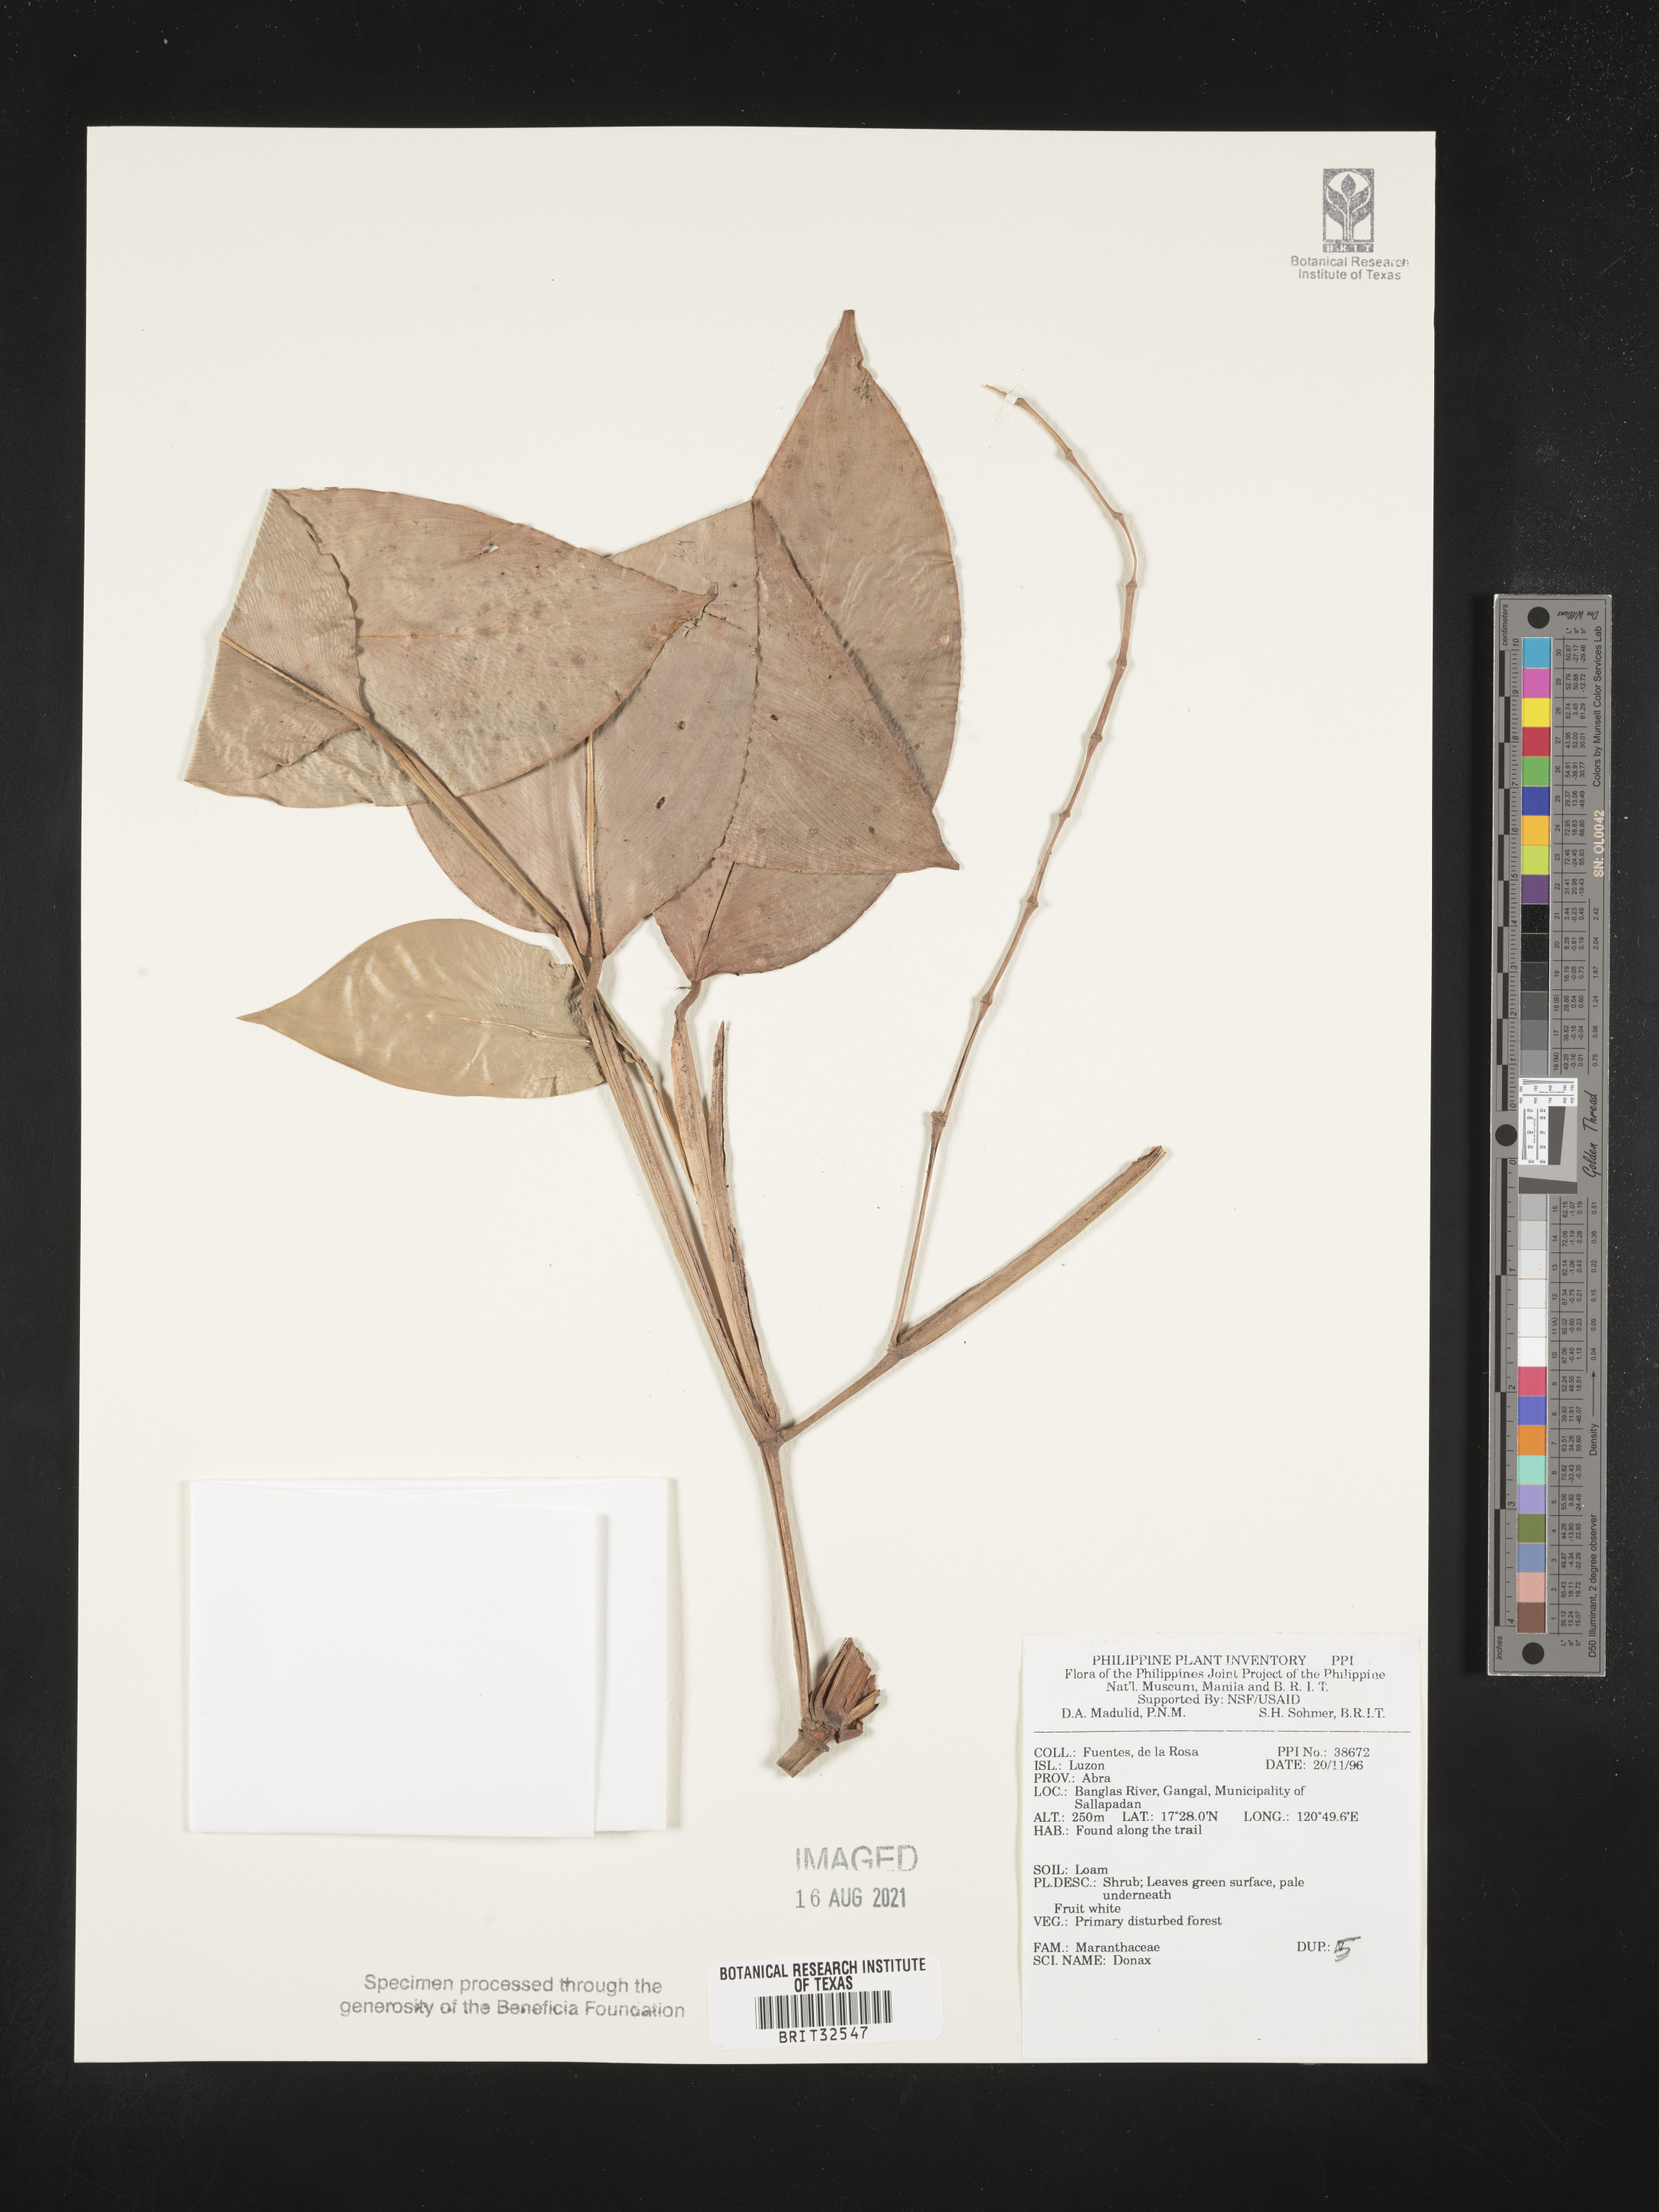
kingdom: Plantae
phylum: Tracheophyta
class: Liliopsida
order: Zingiberales
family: Marantaceae
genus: Donax
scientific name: Donax
